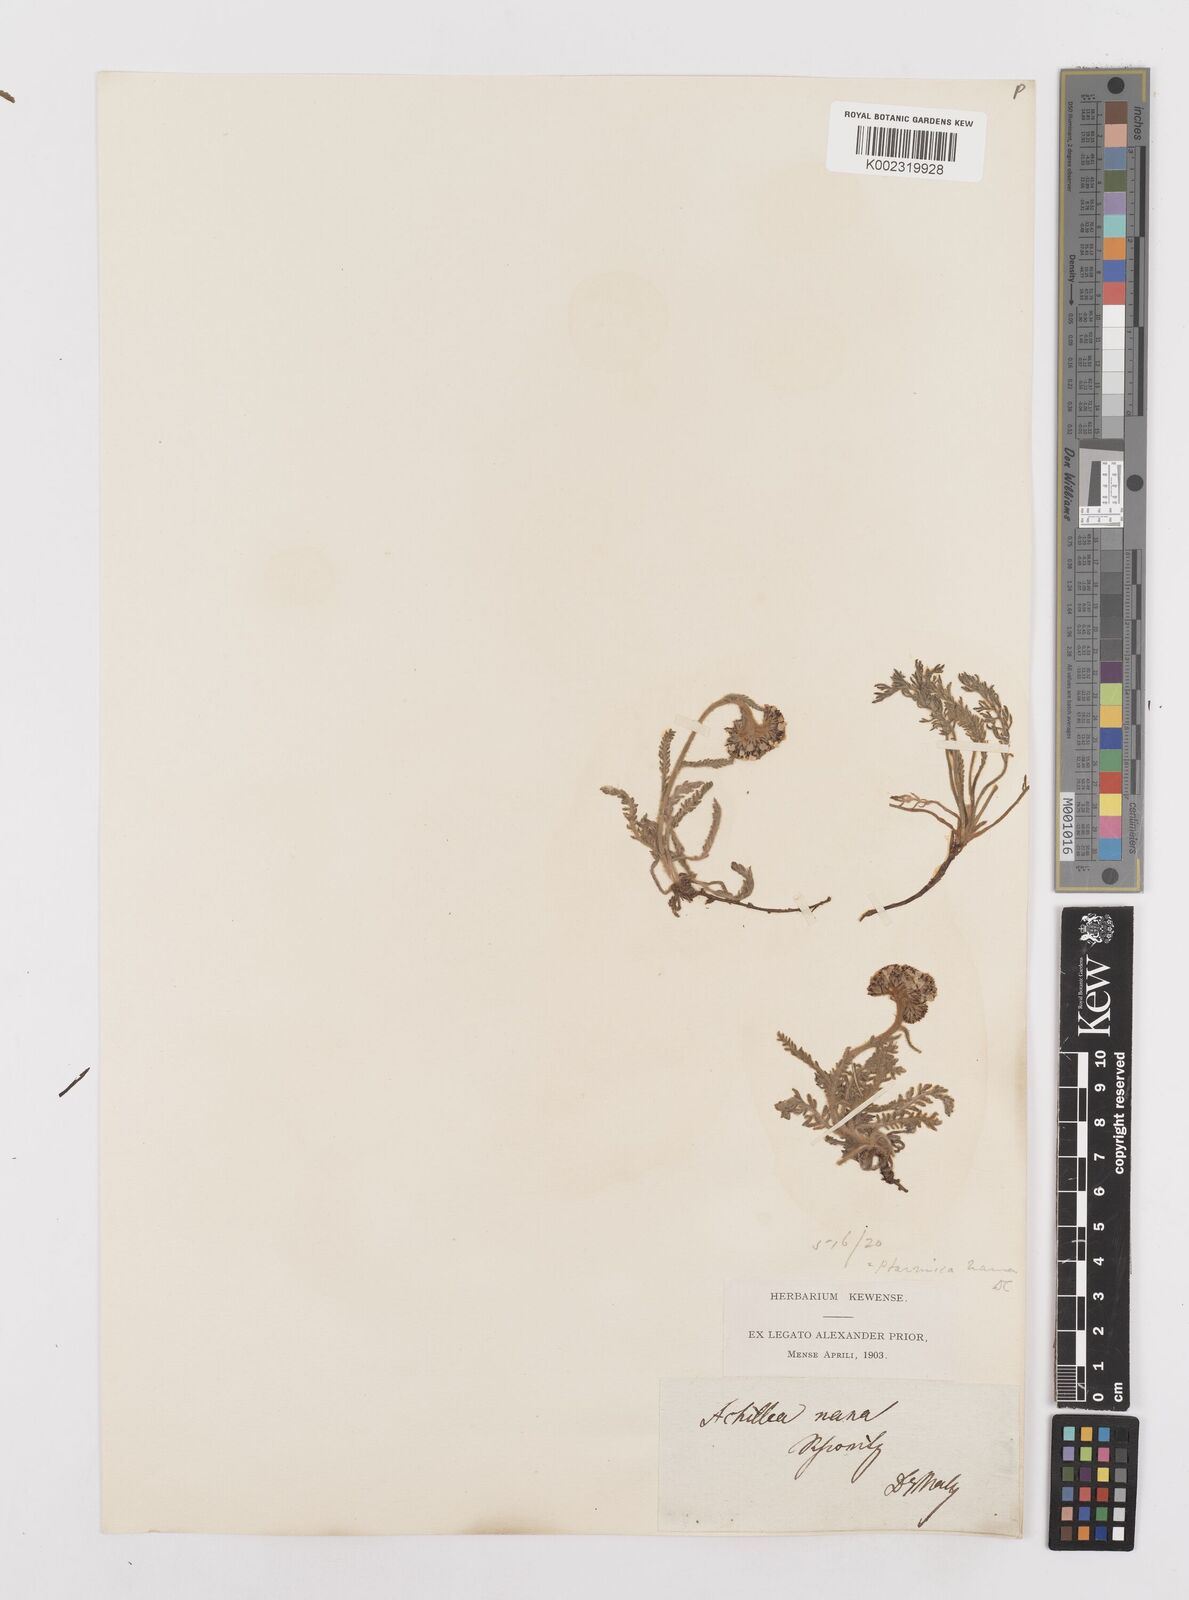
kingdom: Plantae
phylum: Tracheophyta
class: Magnoliopsida
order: Asterales
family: Asteraceae
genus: Achillea
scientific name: Achillea
